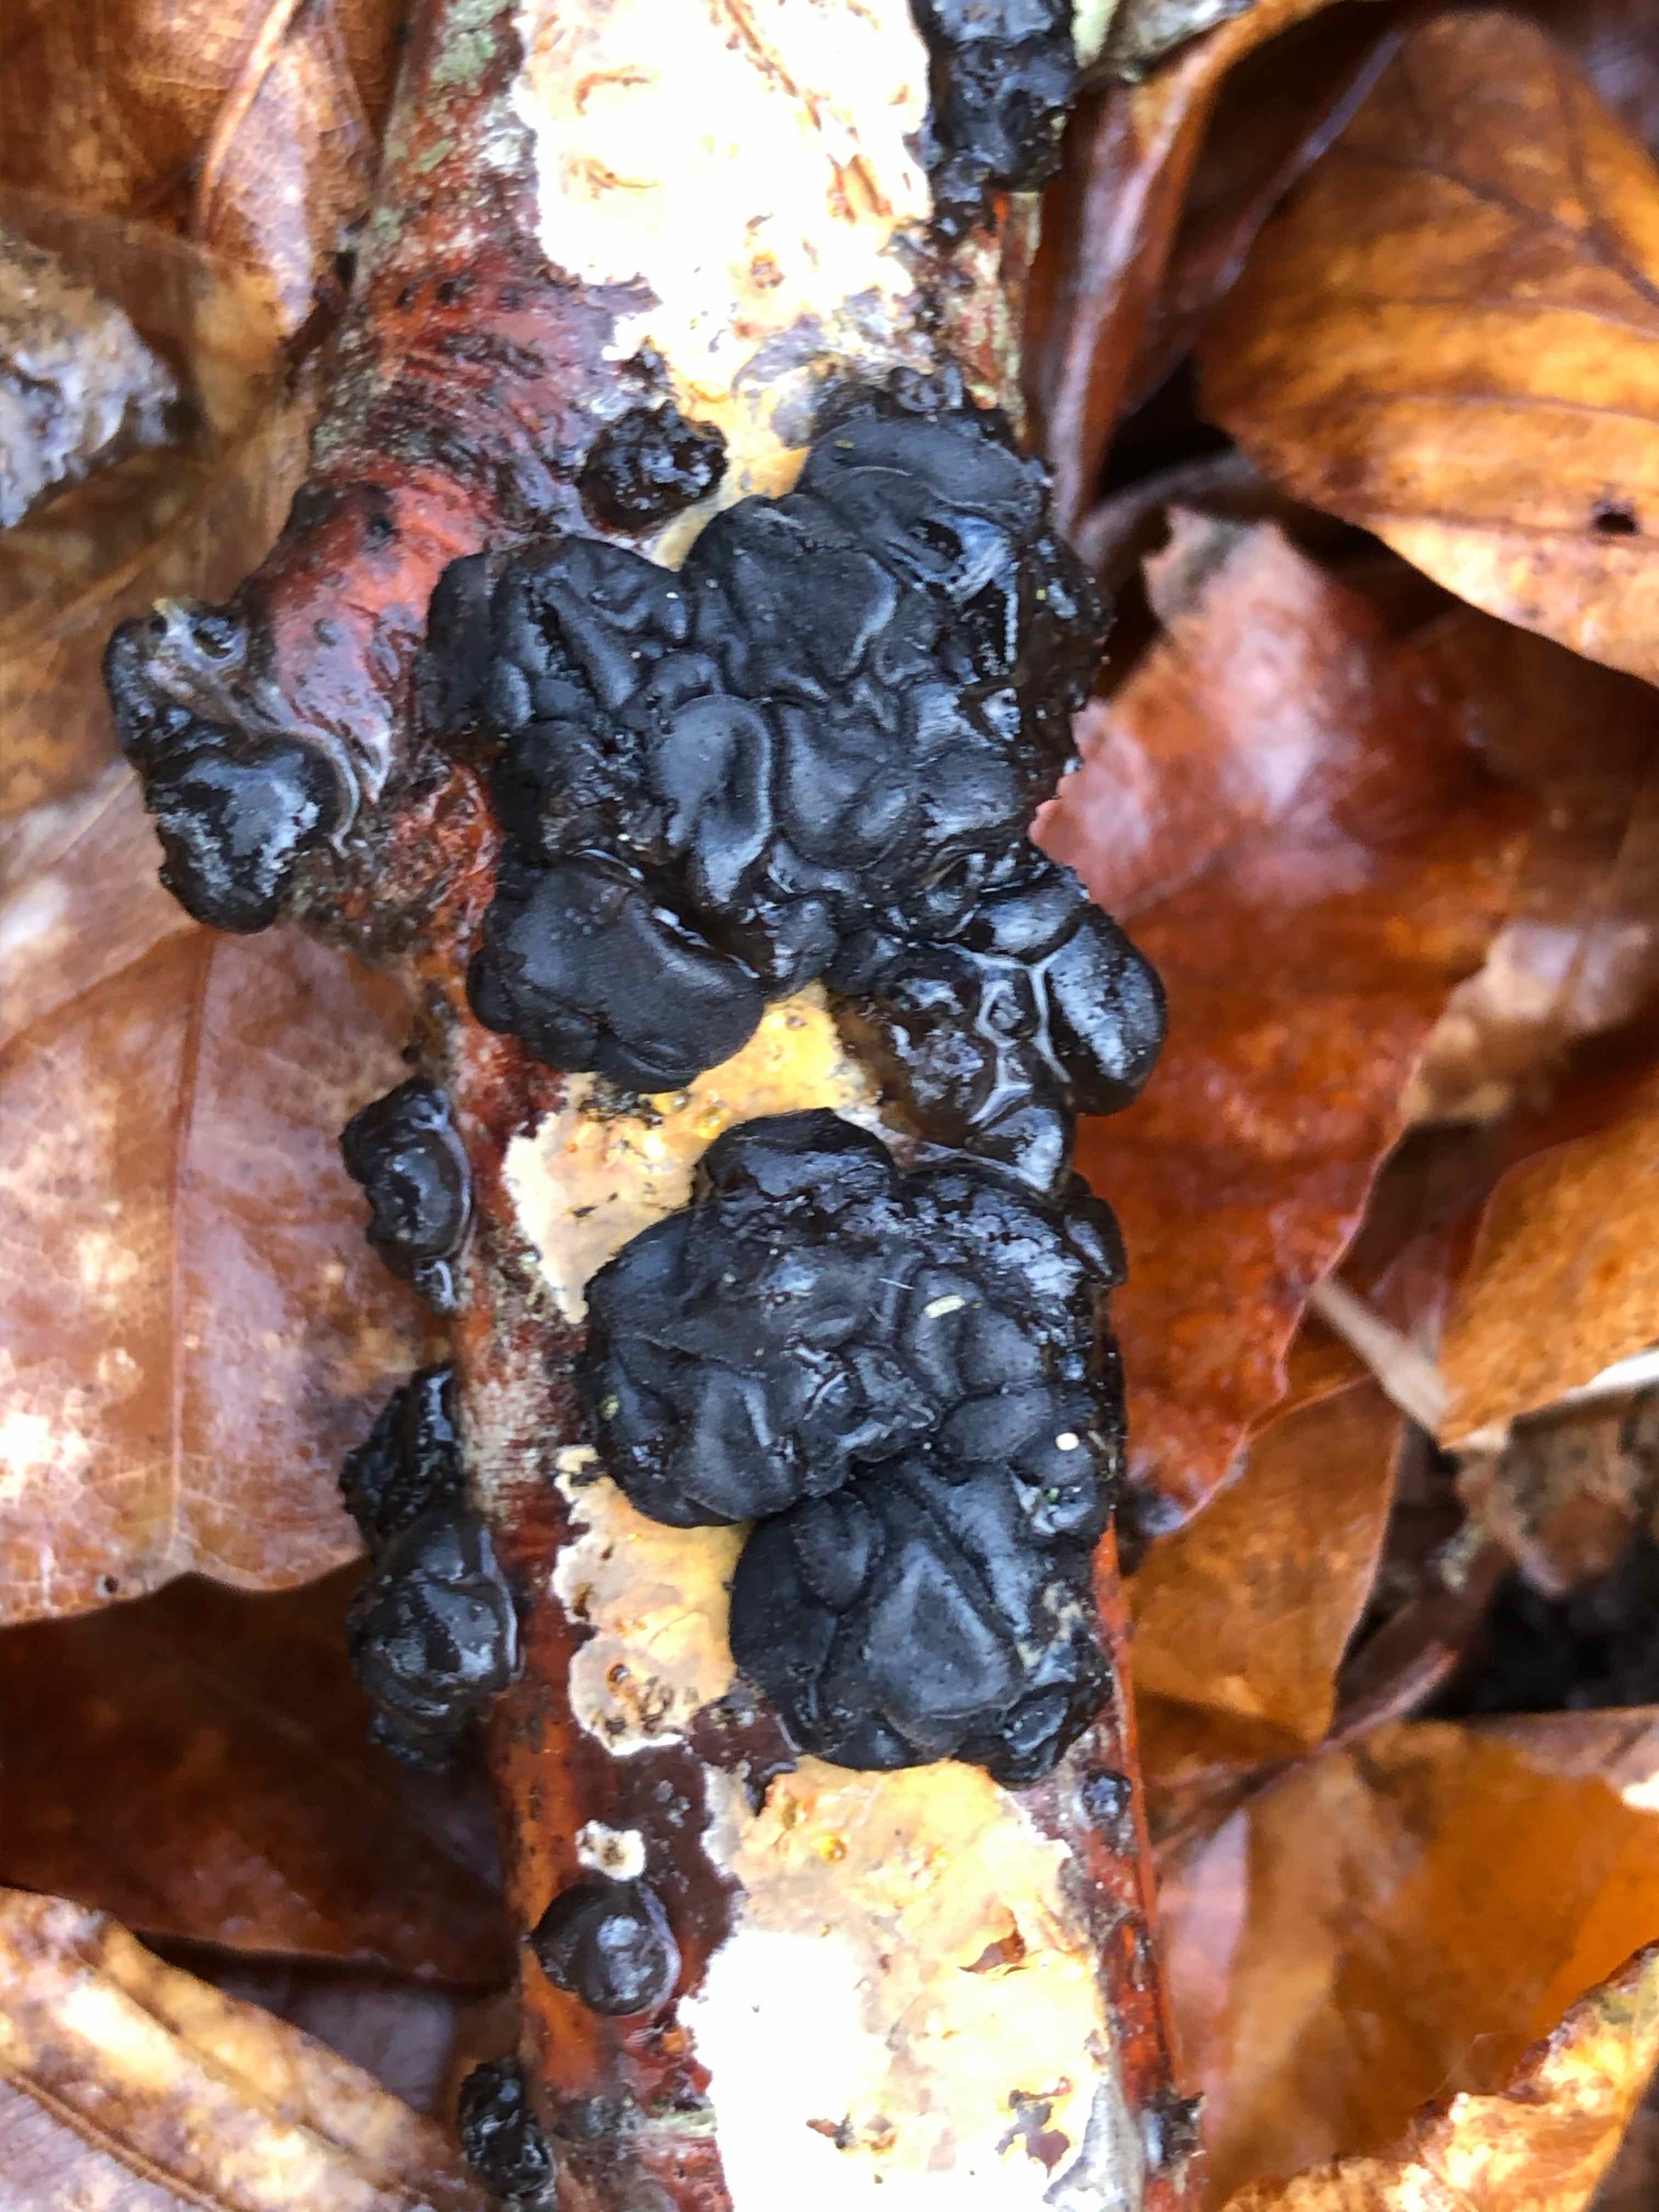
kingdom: Fungi
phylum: Basidiomycota
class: Agaricomycetes
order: Auriculariales
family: Auriculariaceae
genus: Exidia
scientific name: Exidia nigricans
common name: almindelig bævretop
